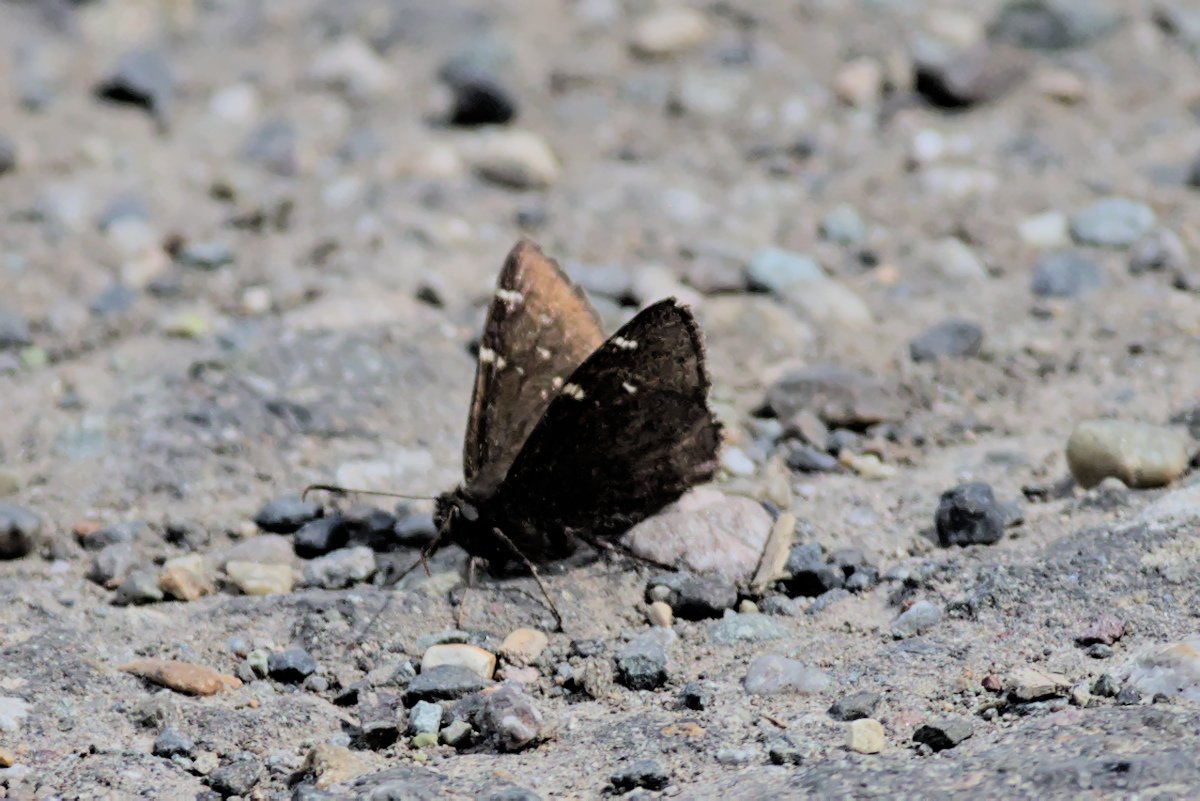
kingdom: Animalia
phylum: Arthropoda
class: Insecta
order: Lepidoptera
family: Hesperiidae
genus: Autochton
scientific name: Autochton
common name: Northern Cloudywing
